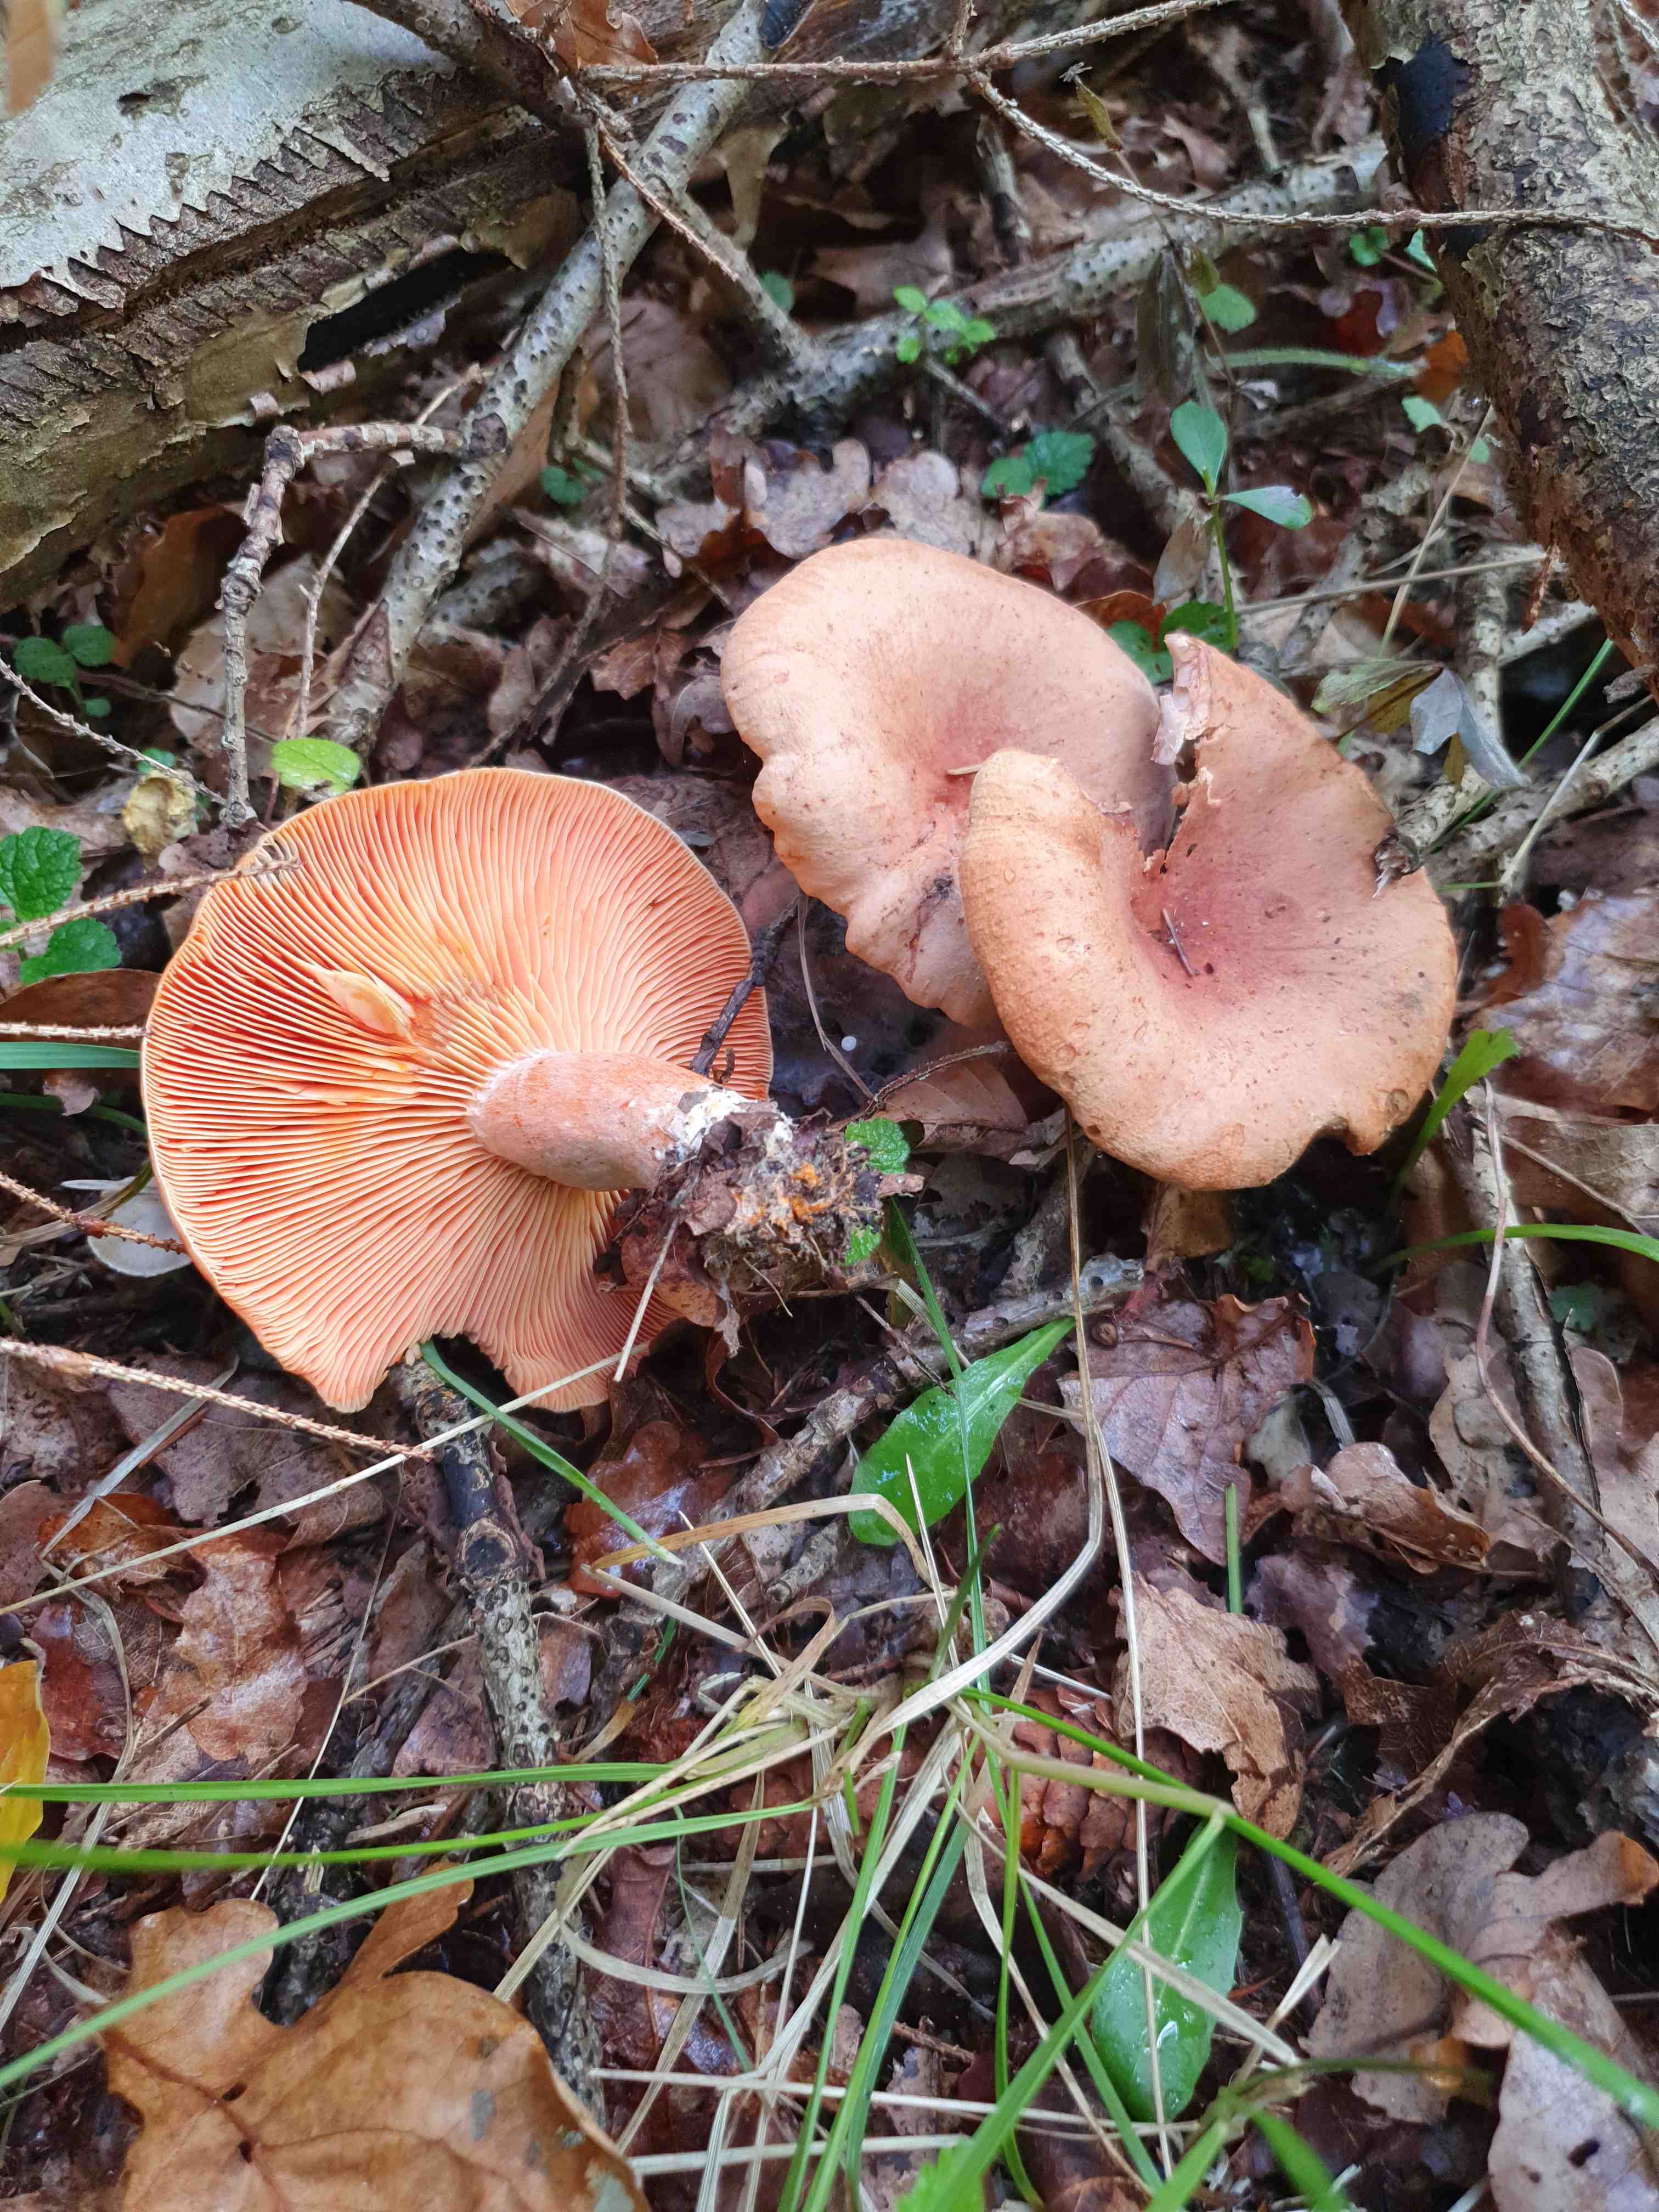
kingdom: Fungi
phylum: Basidiomycota
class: Agaricomycetes
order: Russulales
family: Russulaceae
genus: Lactarius
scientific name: Lactarius deterrimus
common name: gran-mælkehat
